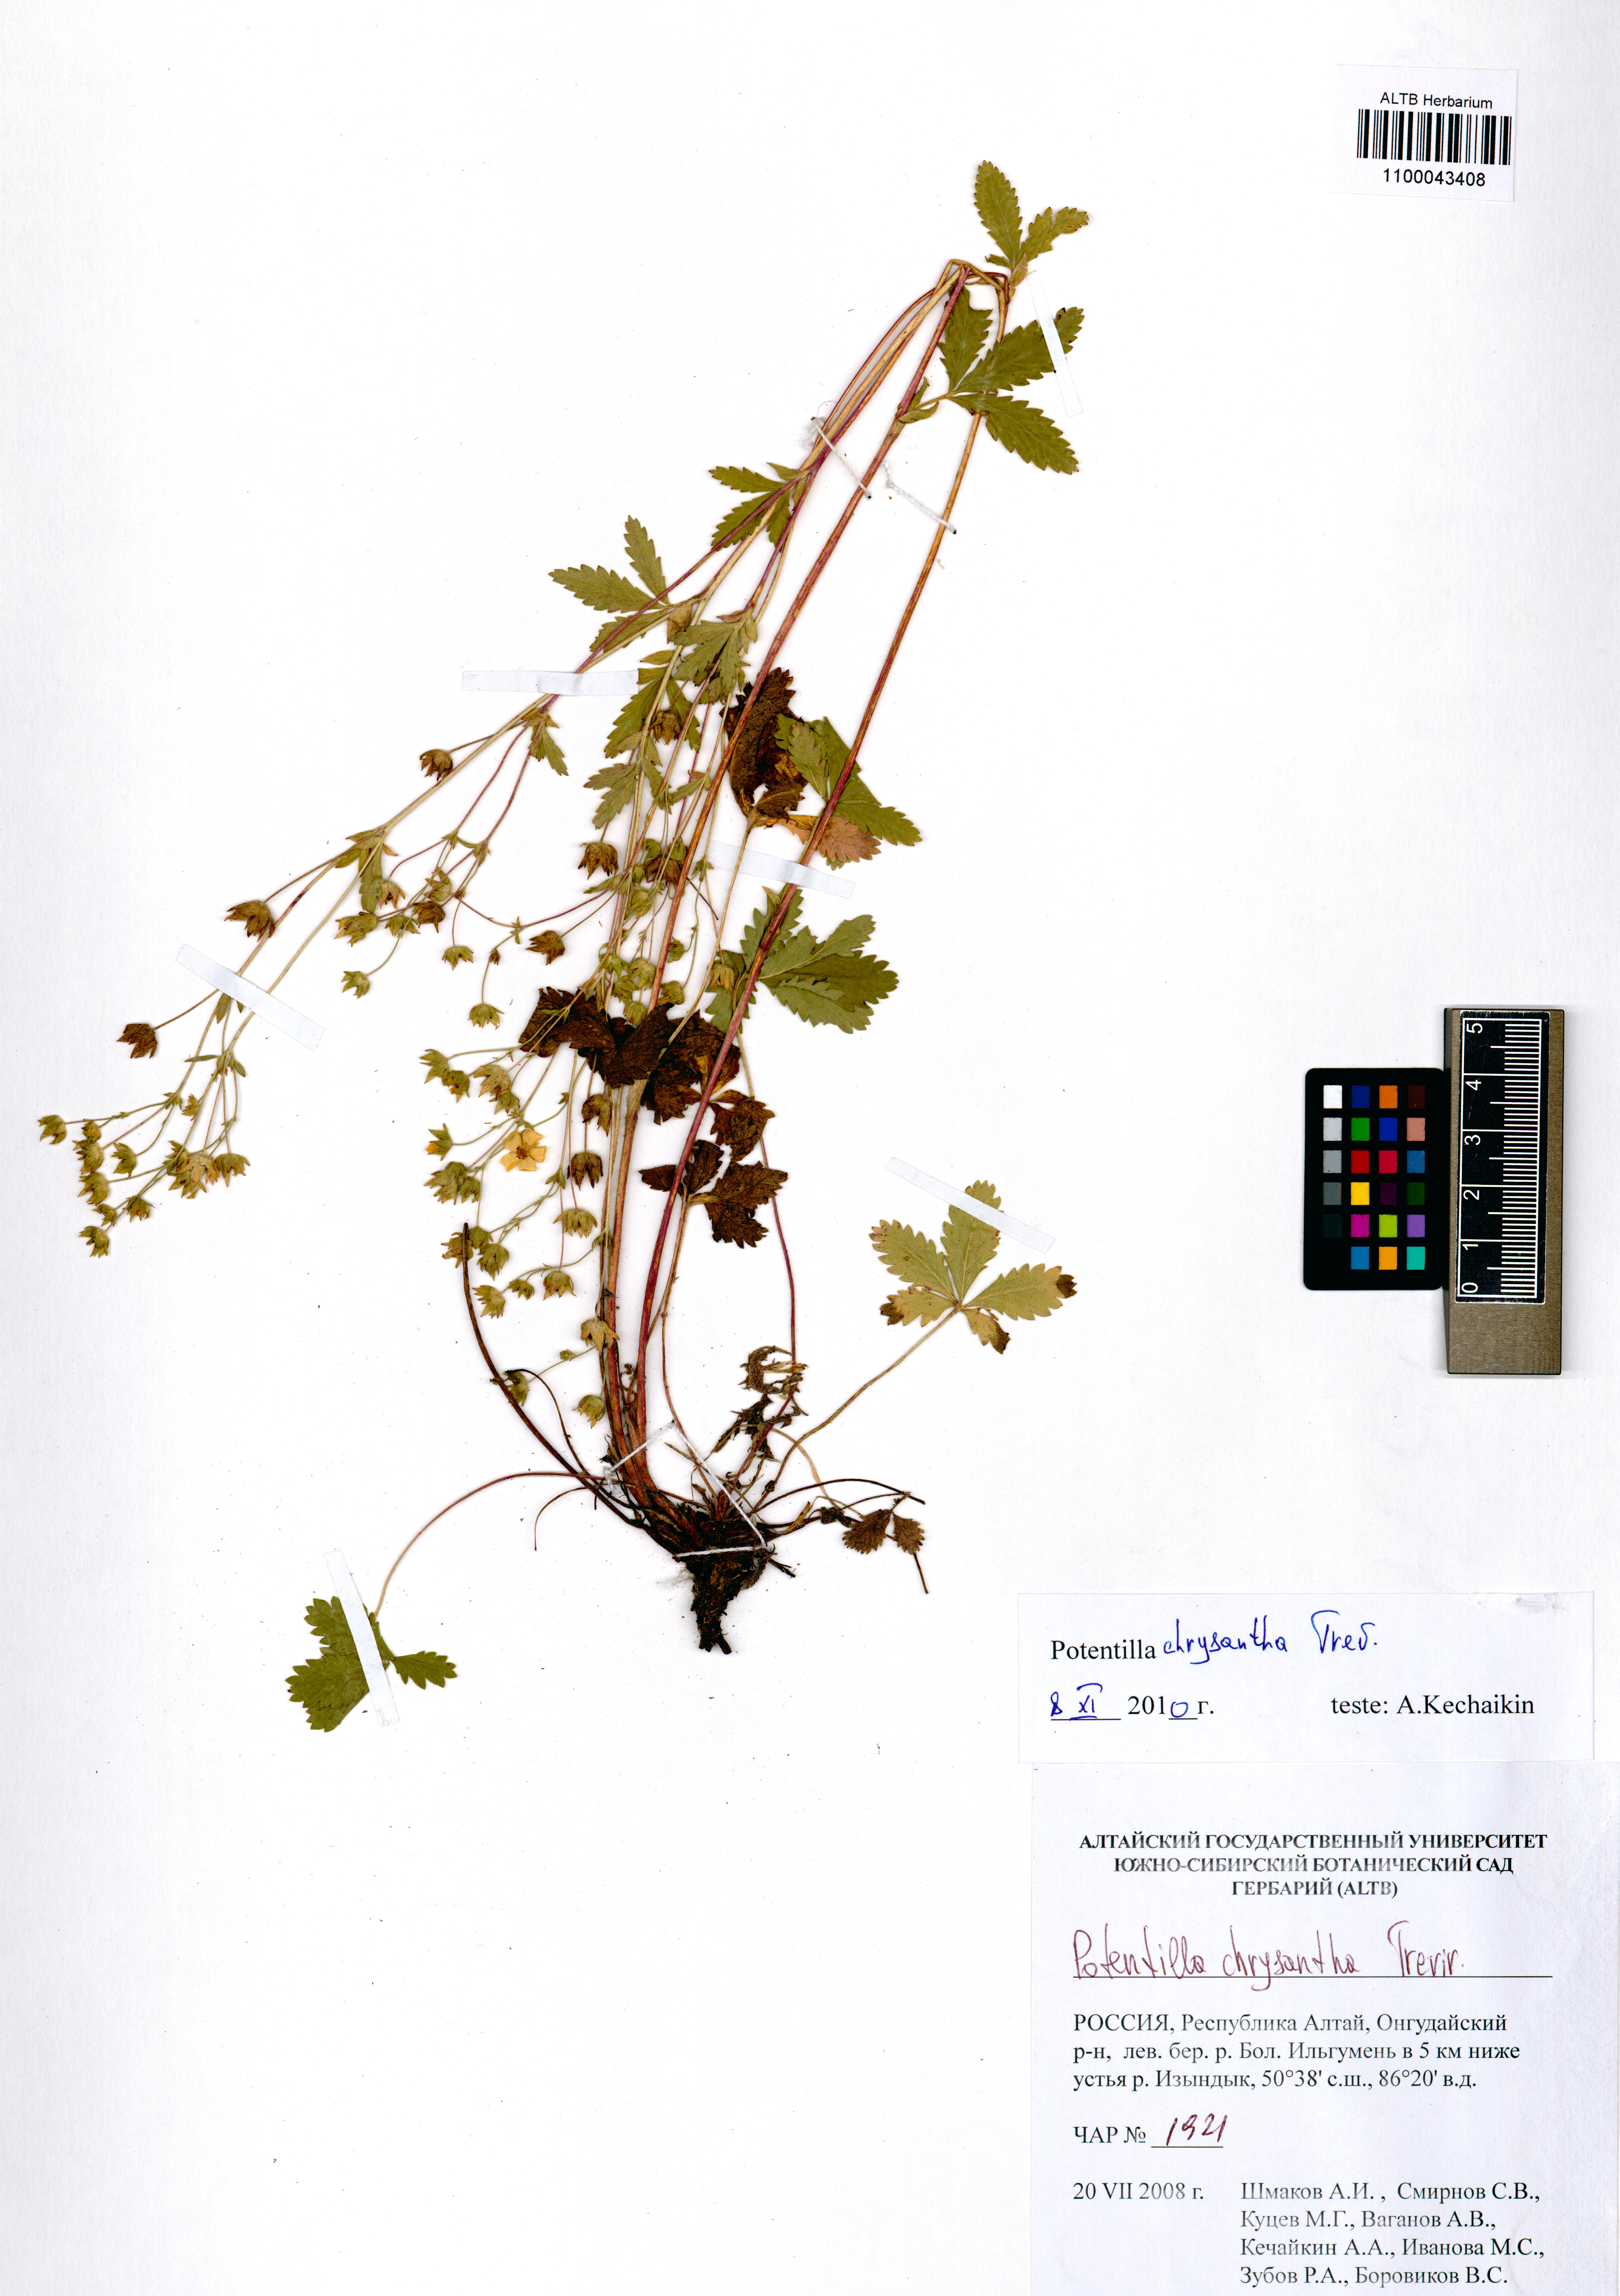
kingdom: Plantae
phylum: Tracheophyta
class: Magnoliopsida
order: Rosales
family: Rosaceae
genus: Potentilla
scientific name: Potentilla chrysantha
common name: Thuringian cinquefoil
